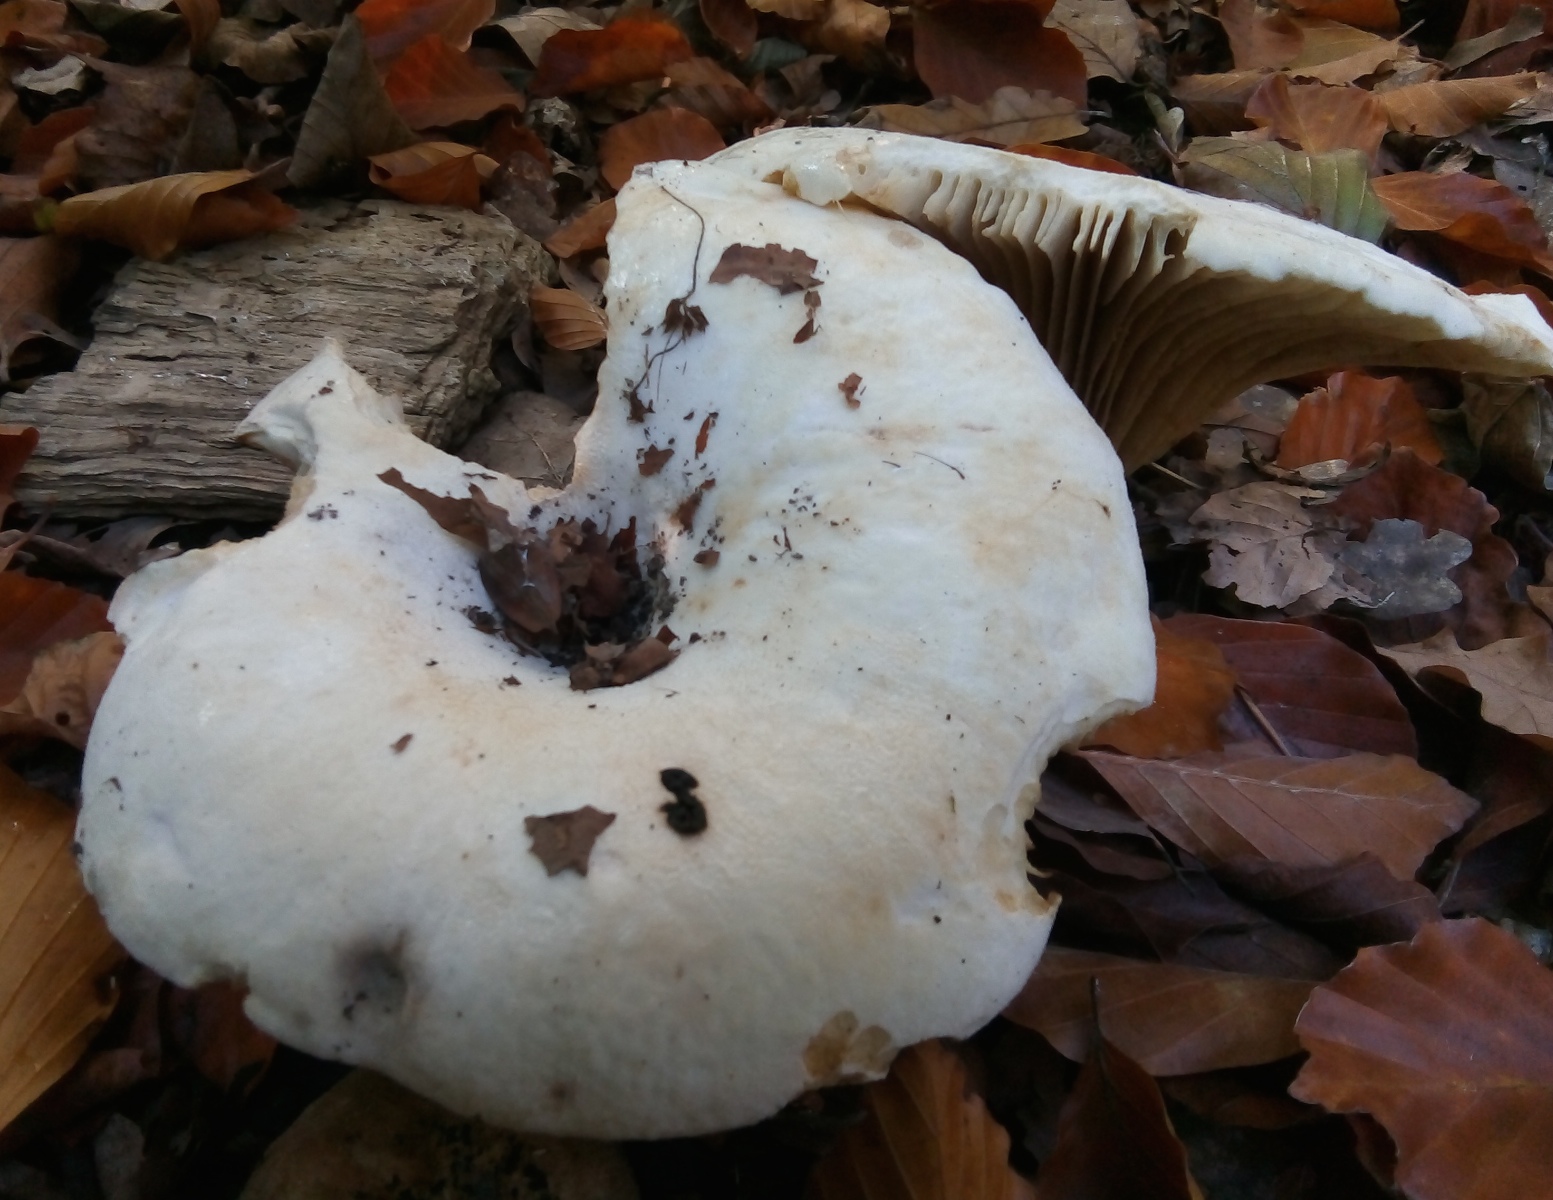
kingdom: Fungi
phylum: Basidiomycota
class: Agaricomycetes
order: Russulales
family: Russulaceae
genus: Lactifluus
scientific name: Lactifluus bertillonii
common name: blødfiltet mælkehat
